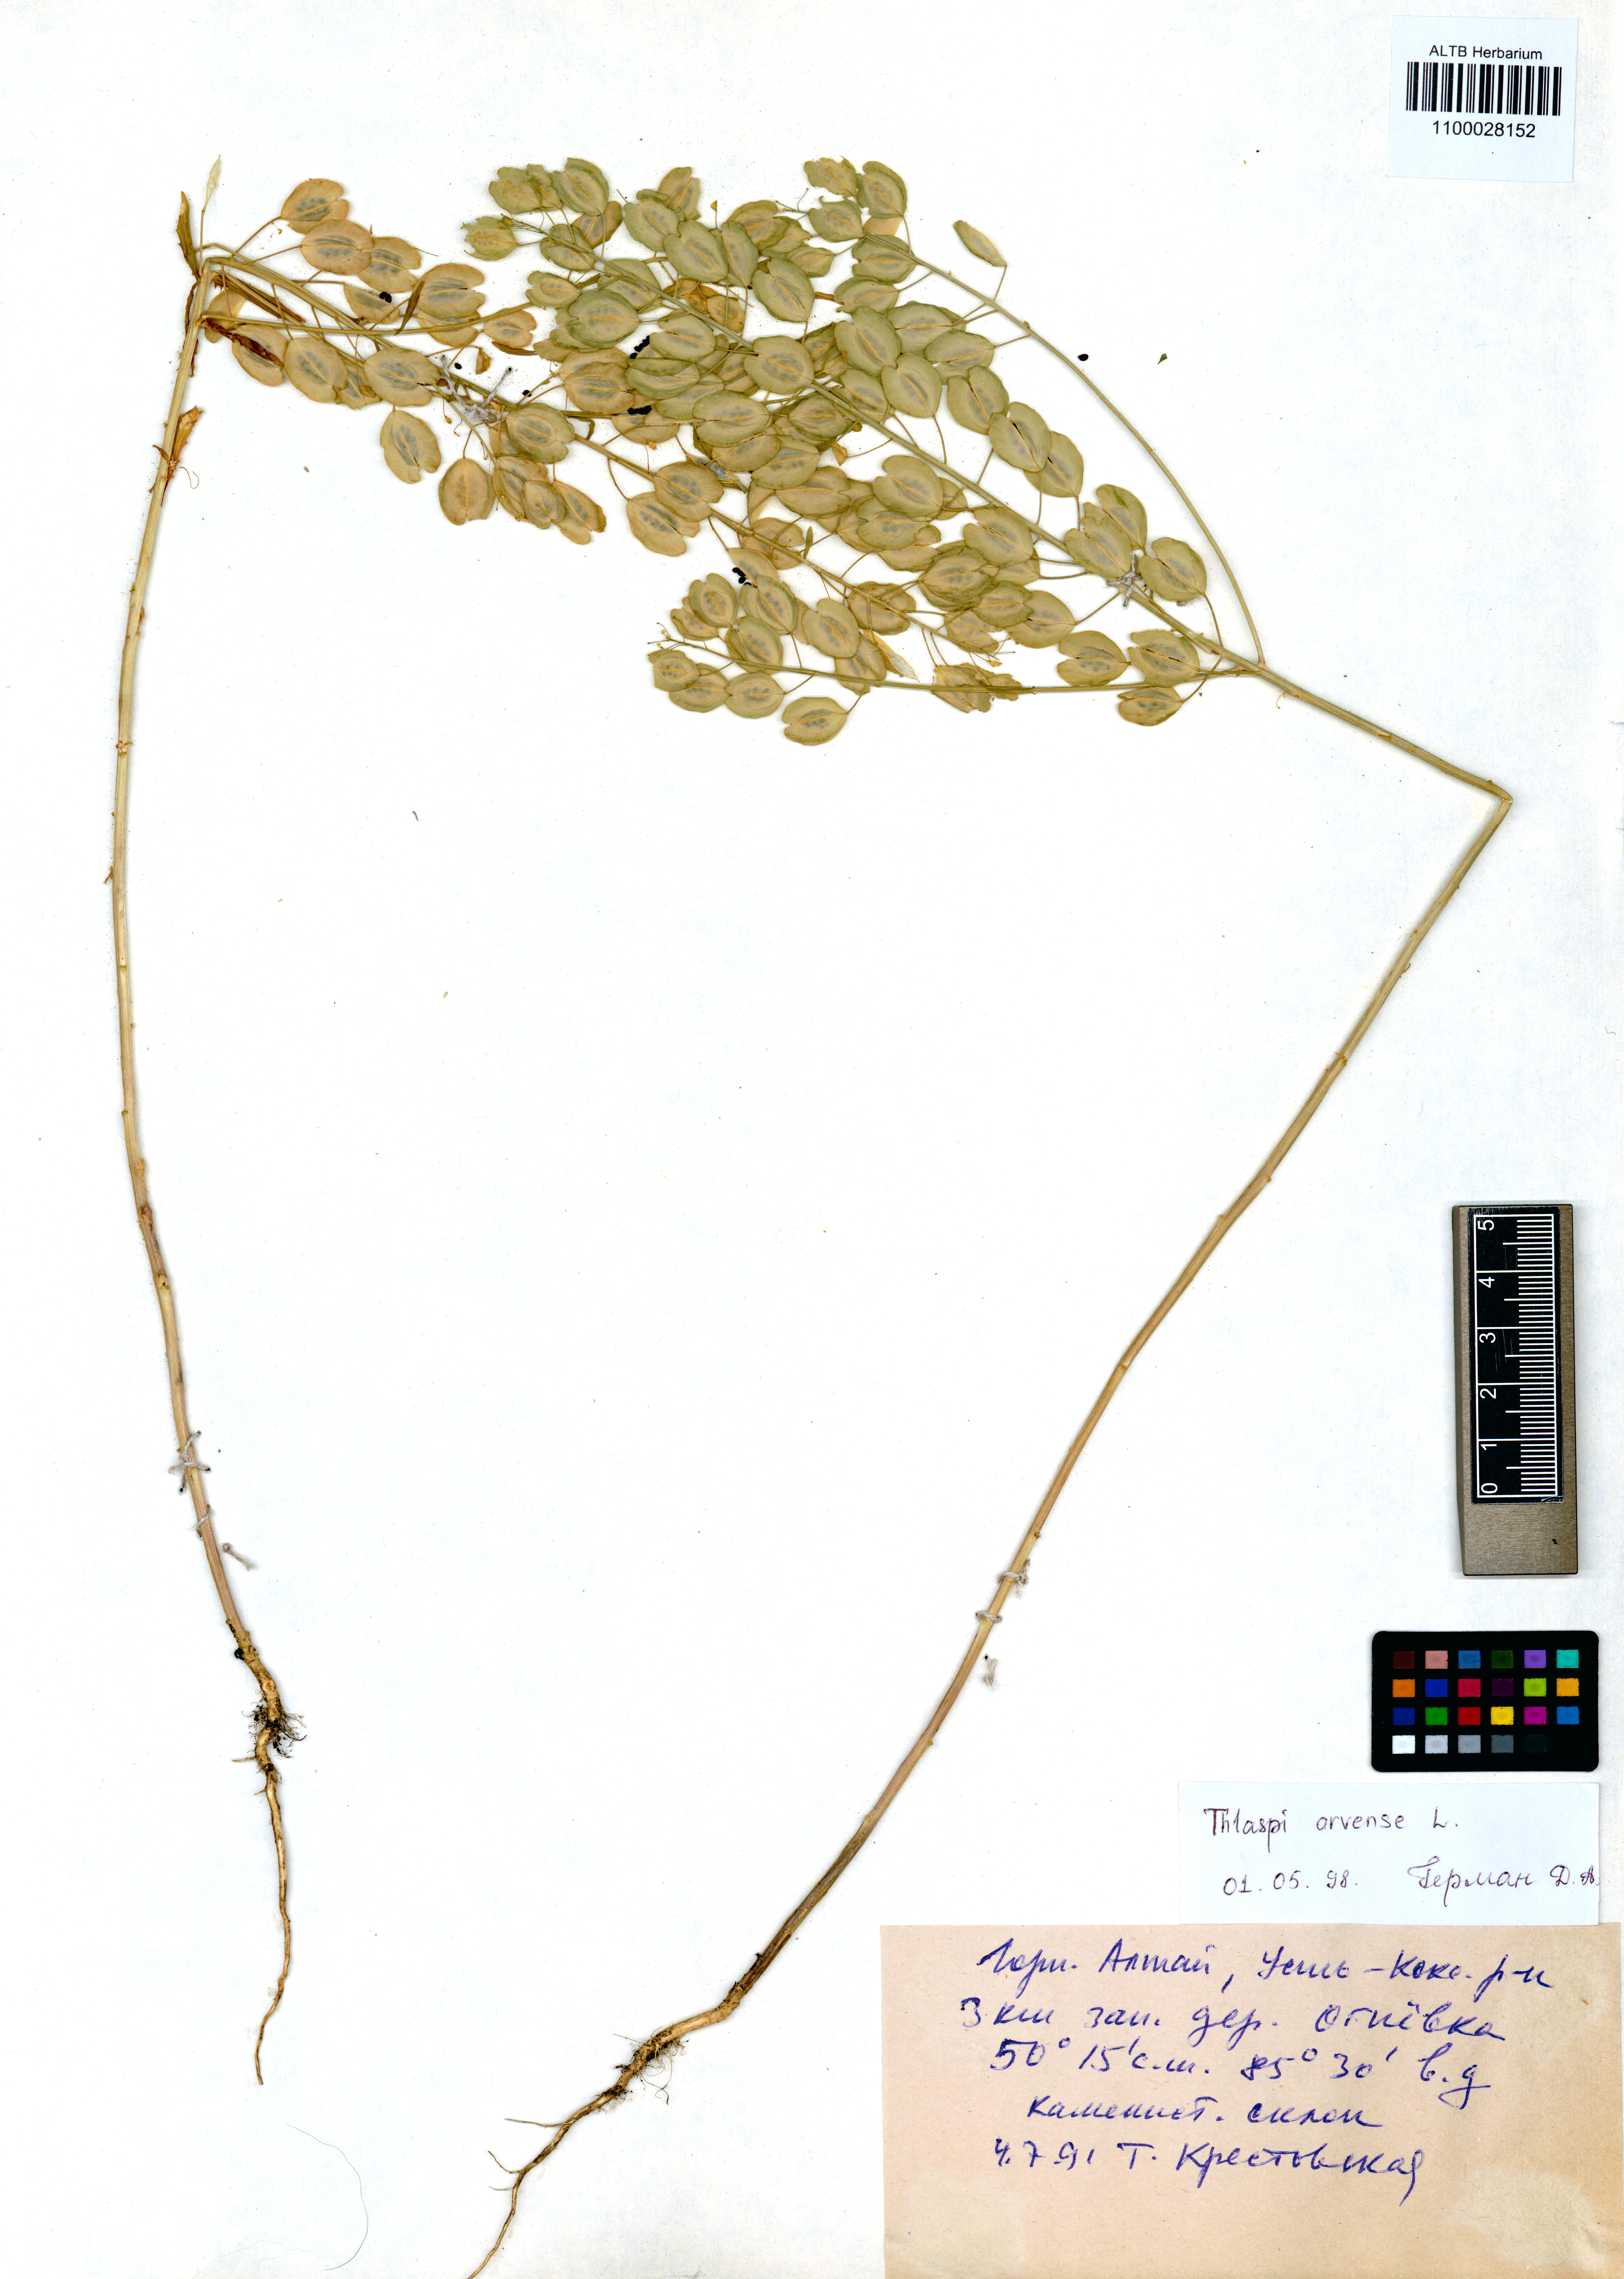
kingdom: Plantae
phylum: Tracheophyta
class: Magnoliopsida
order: Brassicales
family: Brassicaceae
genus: Thlaspi
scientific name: Thlaspi arvense
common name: Field pennycress
